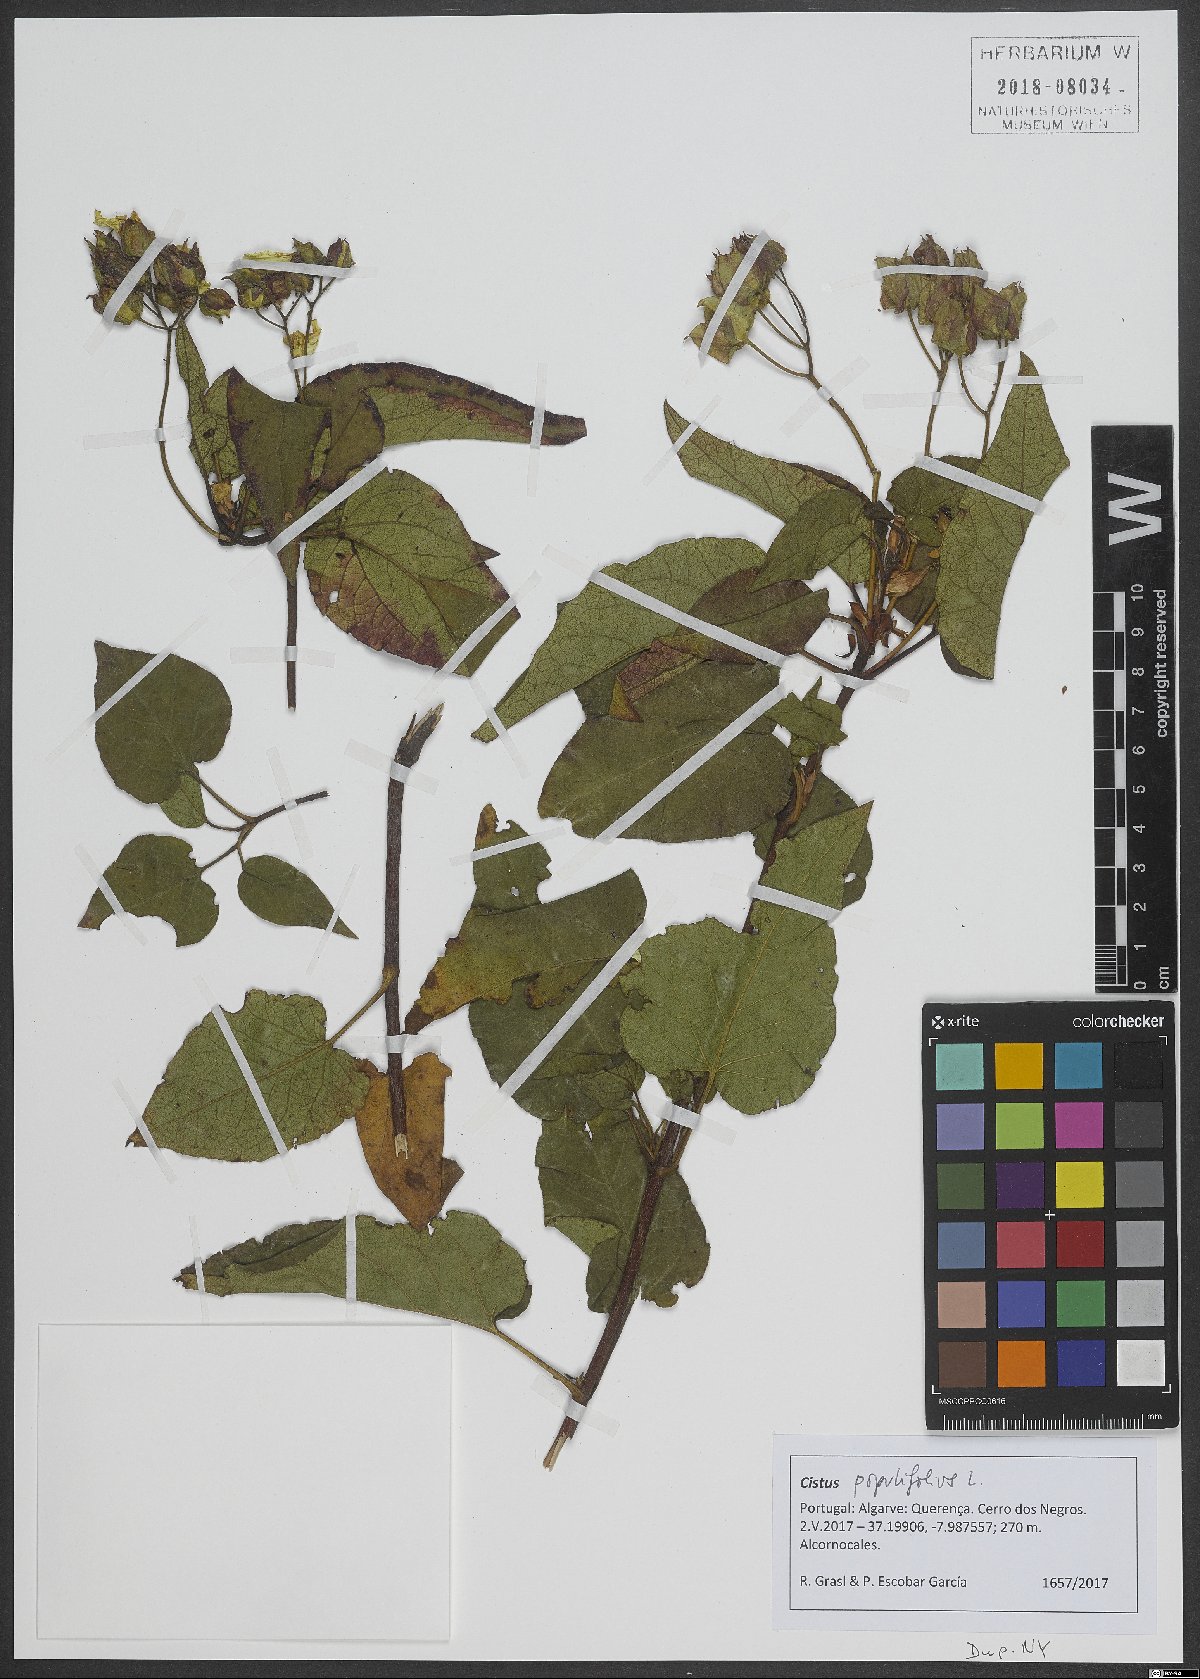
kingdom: Plantae
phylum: Tracheophyta
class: Magnoliopsida
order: Malvales
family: Cistaceae
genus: Cistus
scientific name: Cistus populifolius
